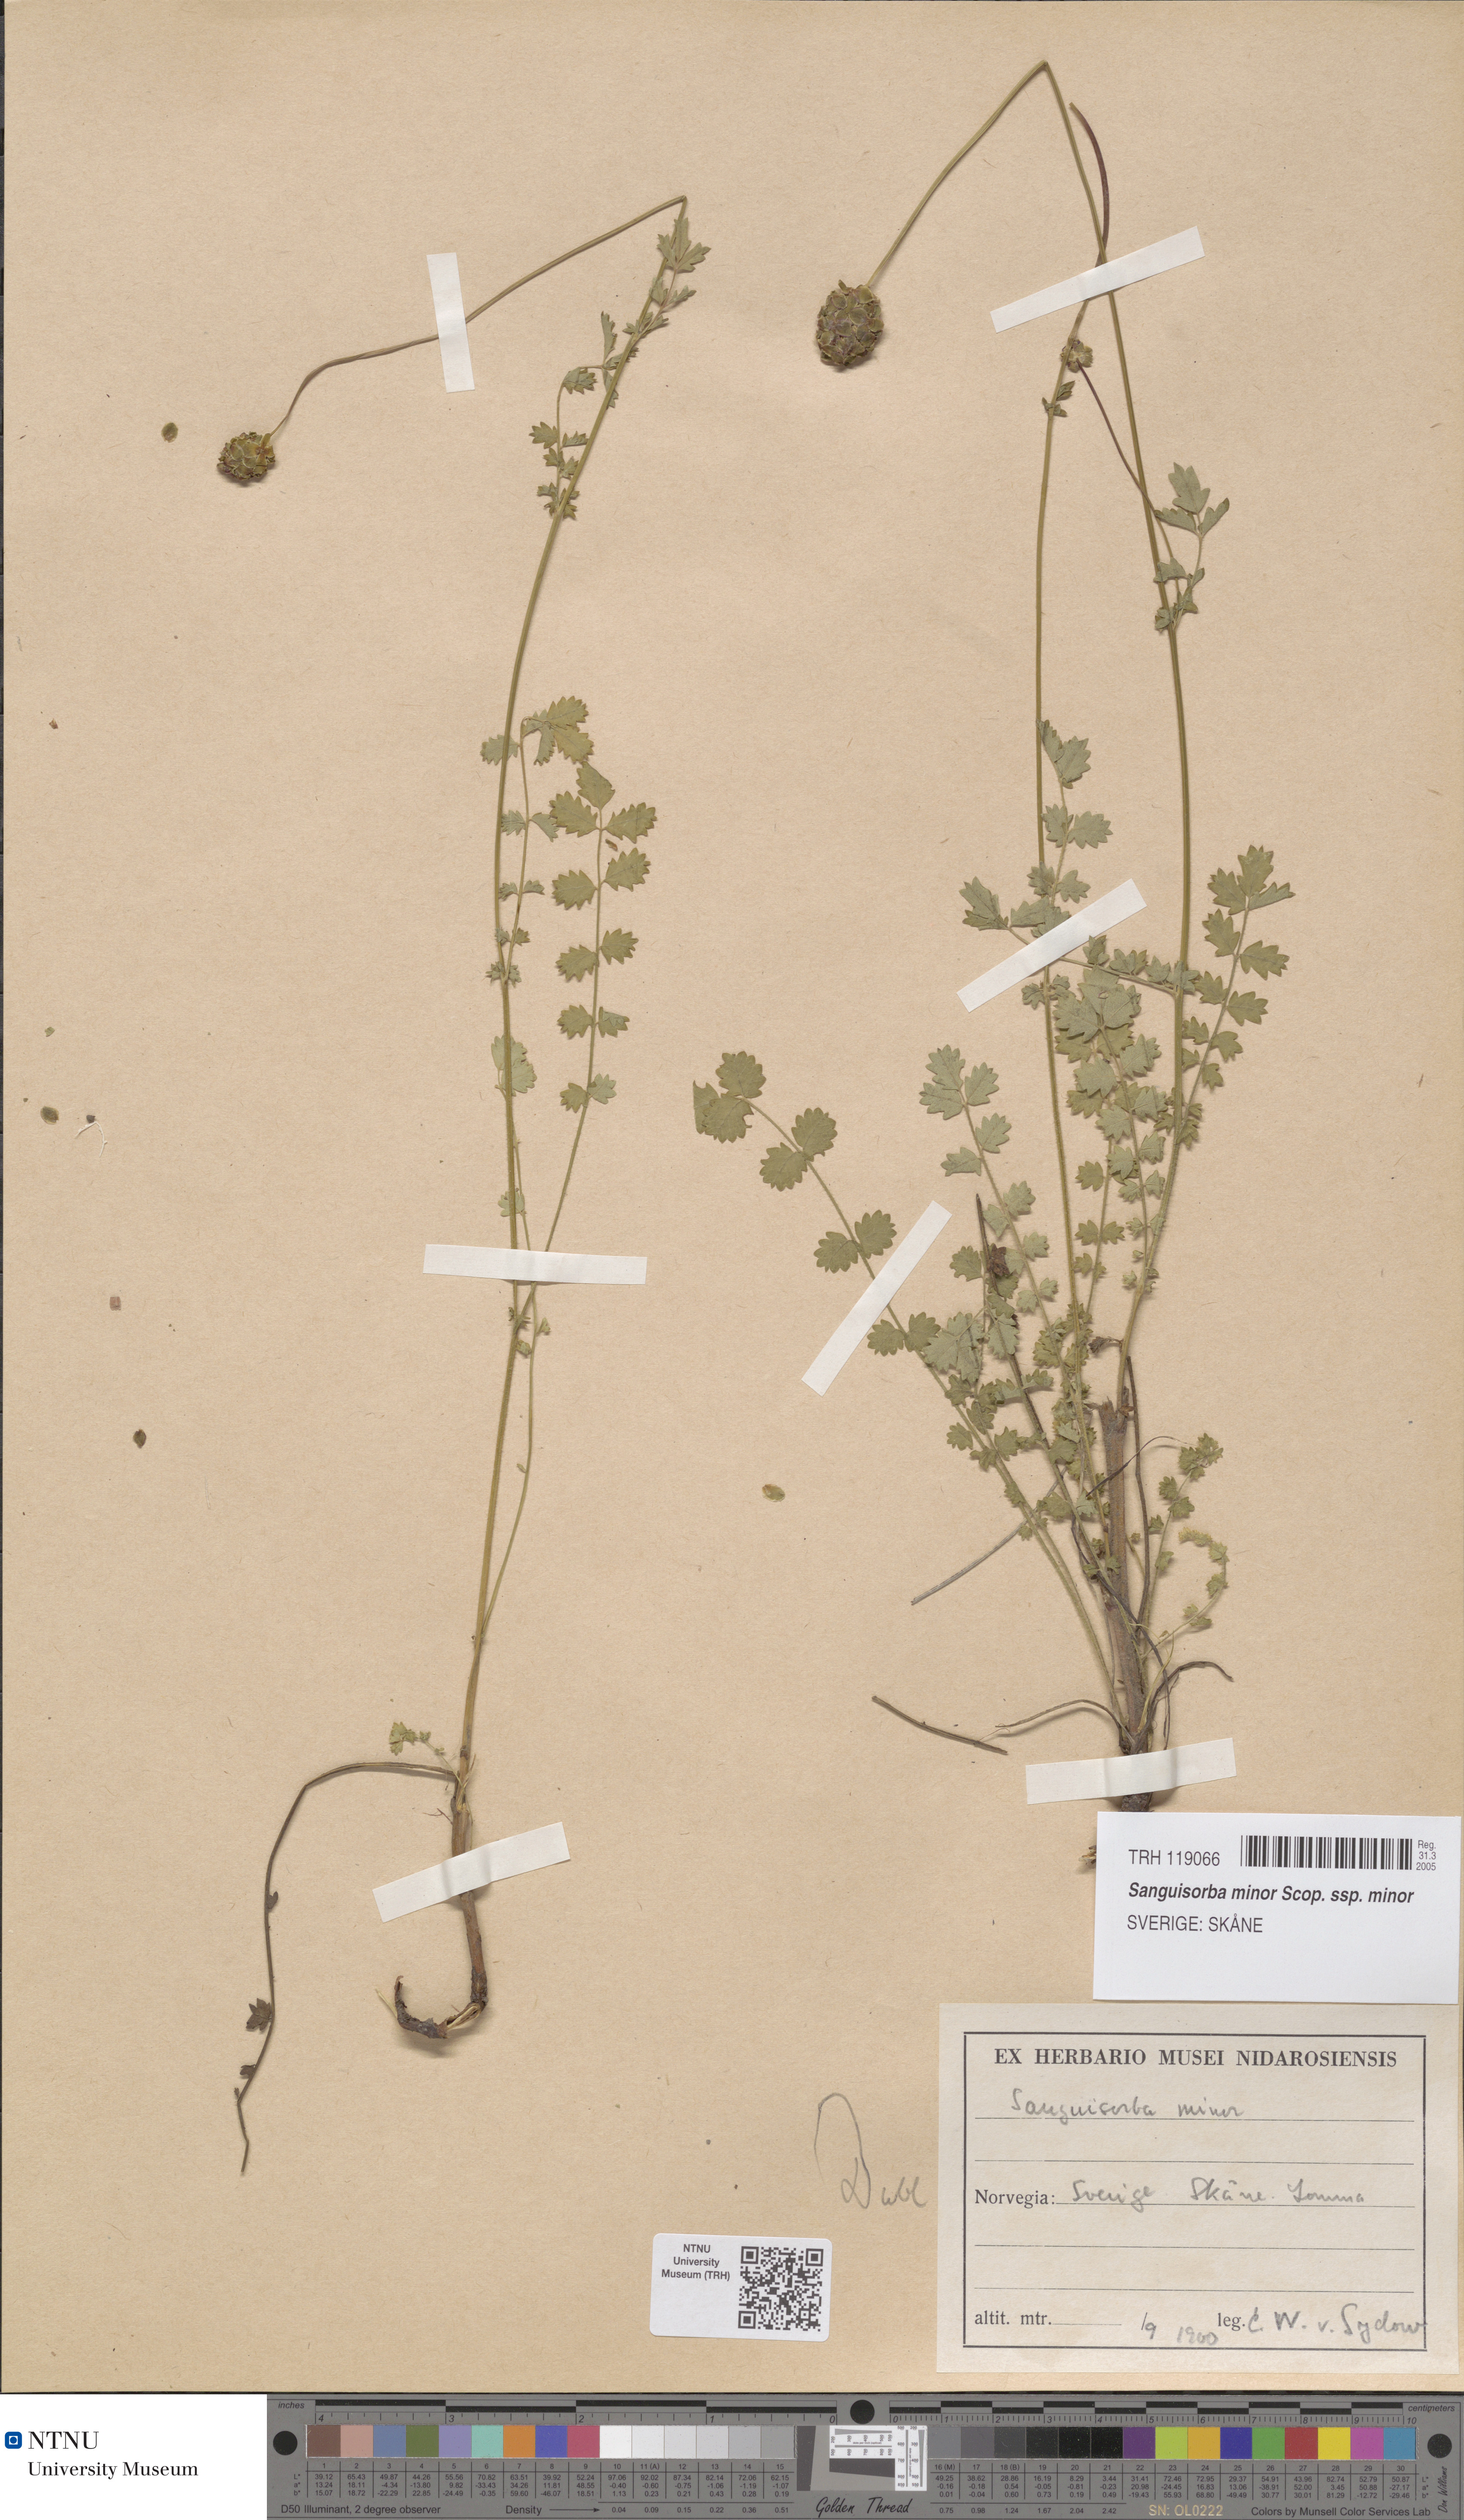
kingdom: Plantae
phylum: Tracheophyta
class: Magnoliopsida
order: Rosales
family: Rosaceae
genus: Poterium
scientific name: Poterium sanguisorba
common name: Salad burnet
